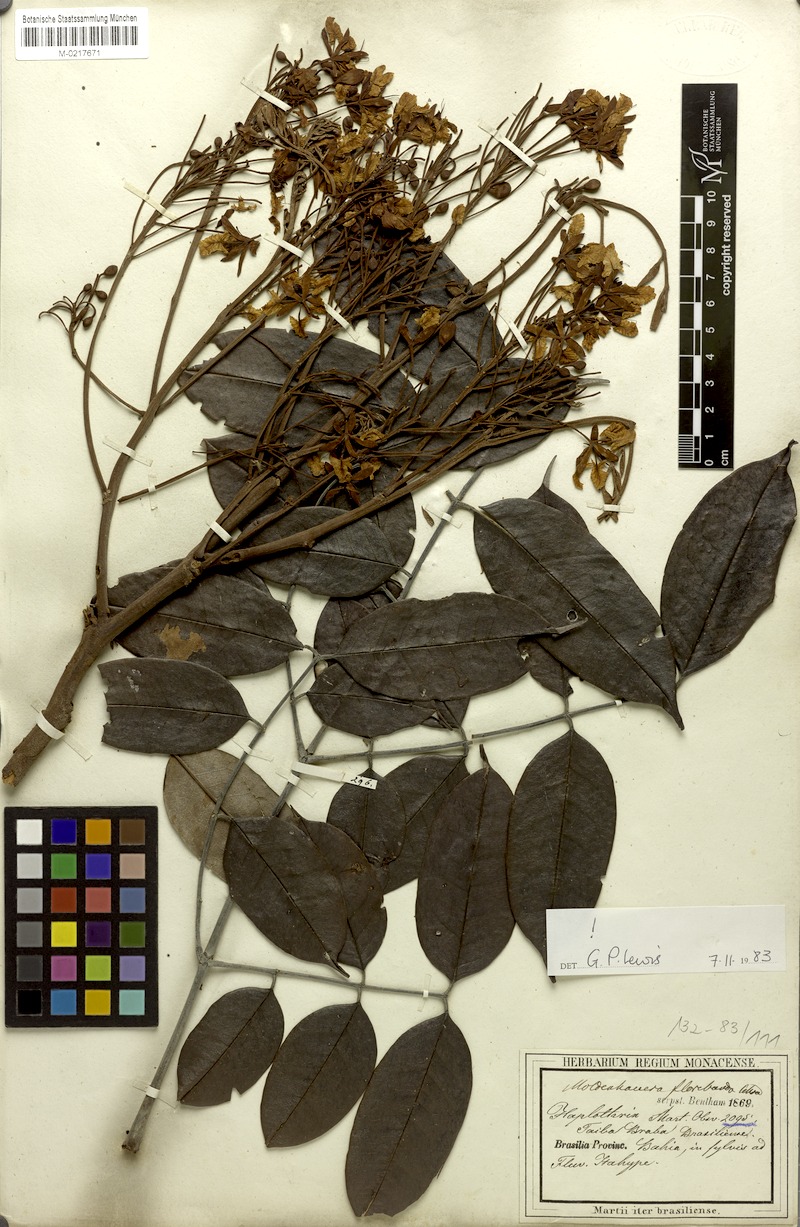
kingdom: Plantae
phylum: Tracheophyta
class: Magnoliopsida
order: Fabales
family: Fabaceae
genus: Moldenhawera
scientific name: Moldenhawera floribunda
